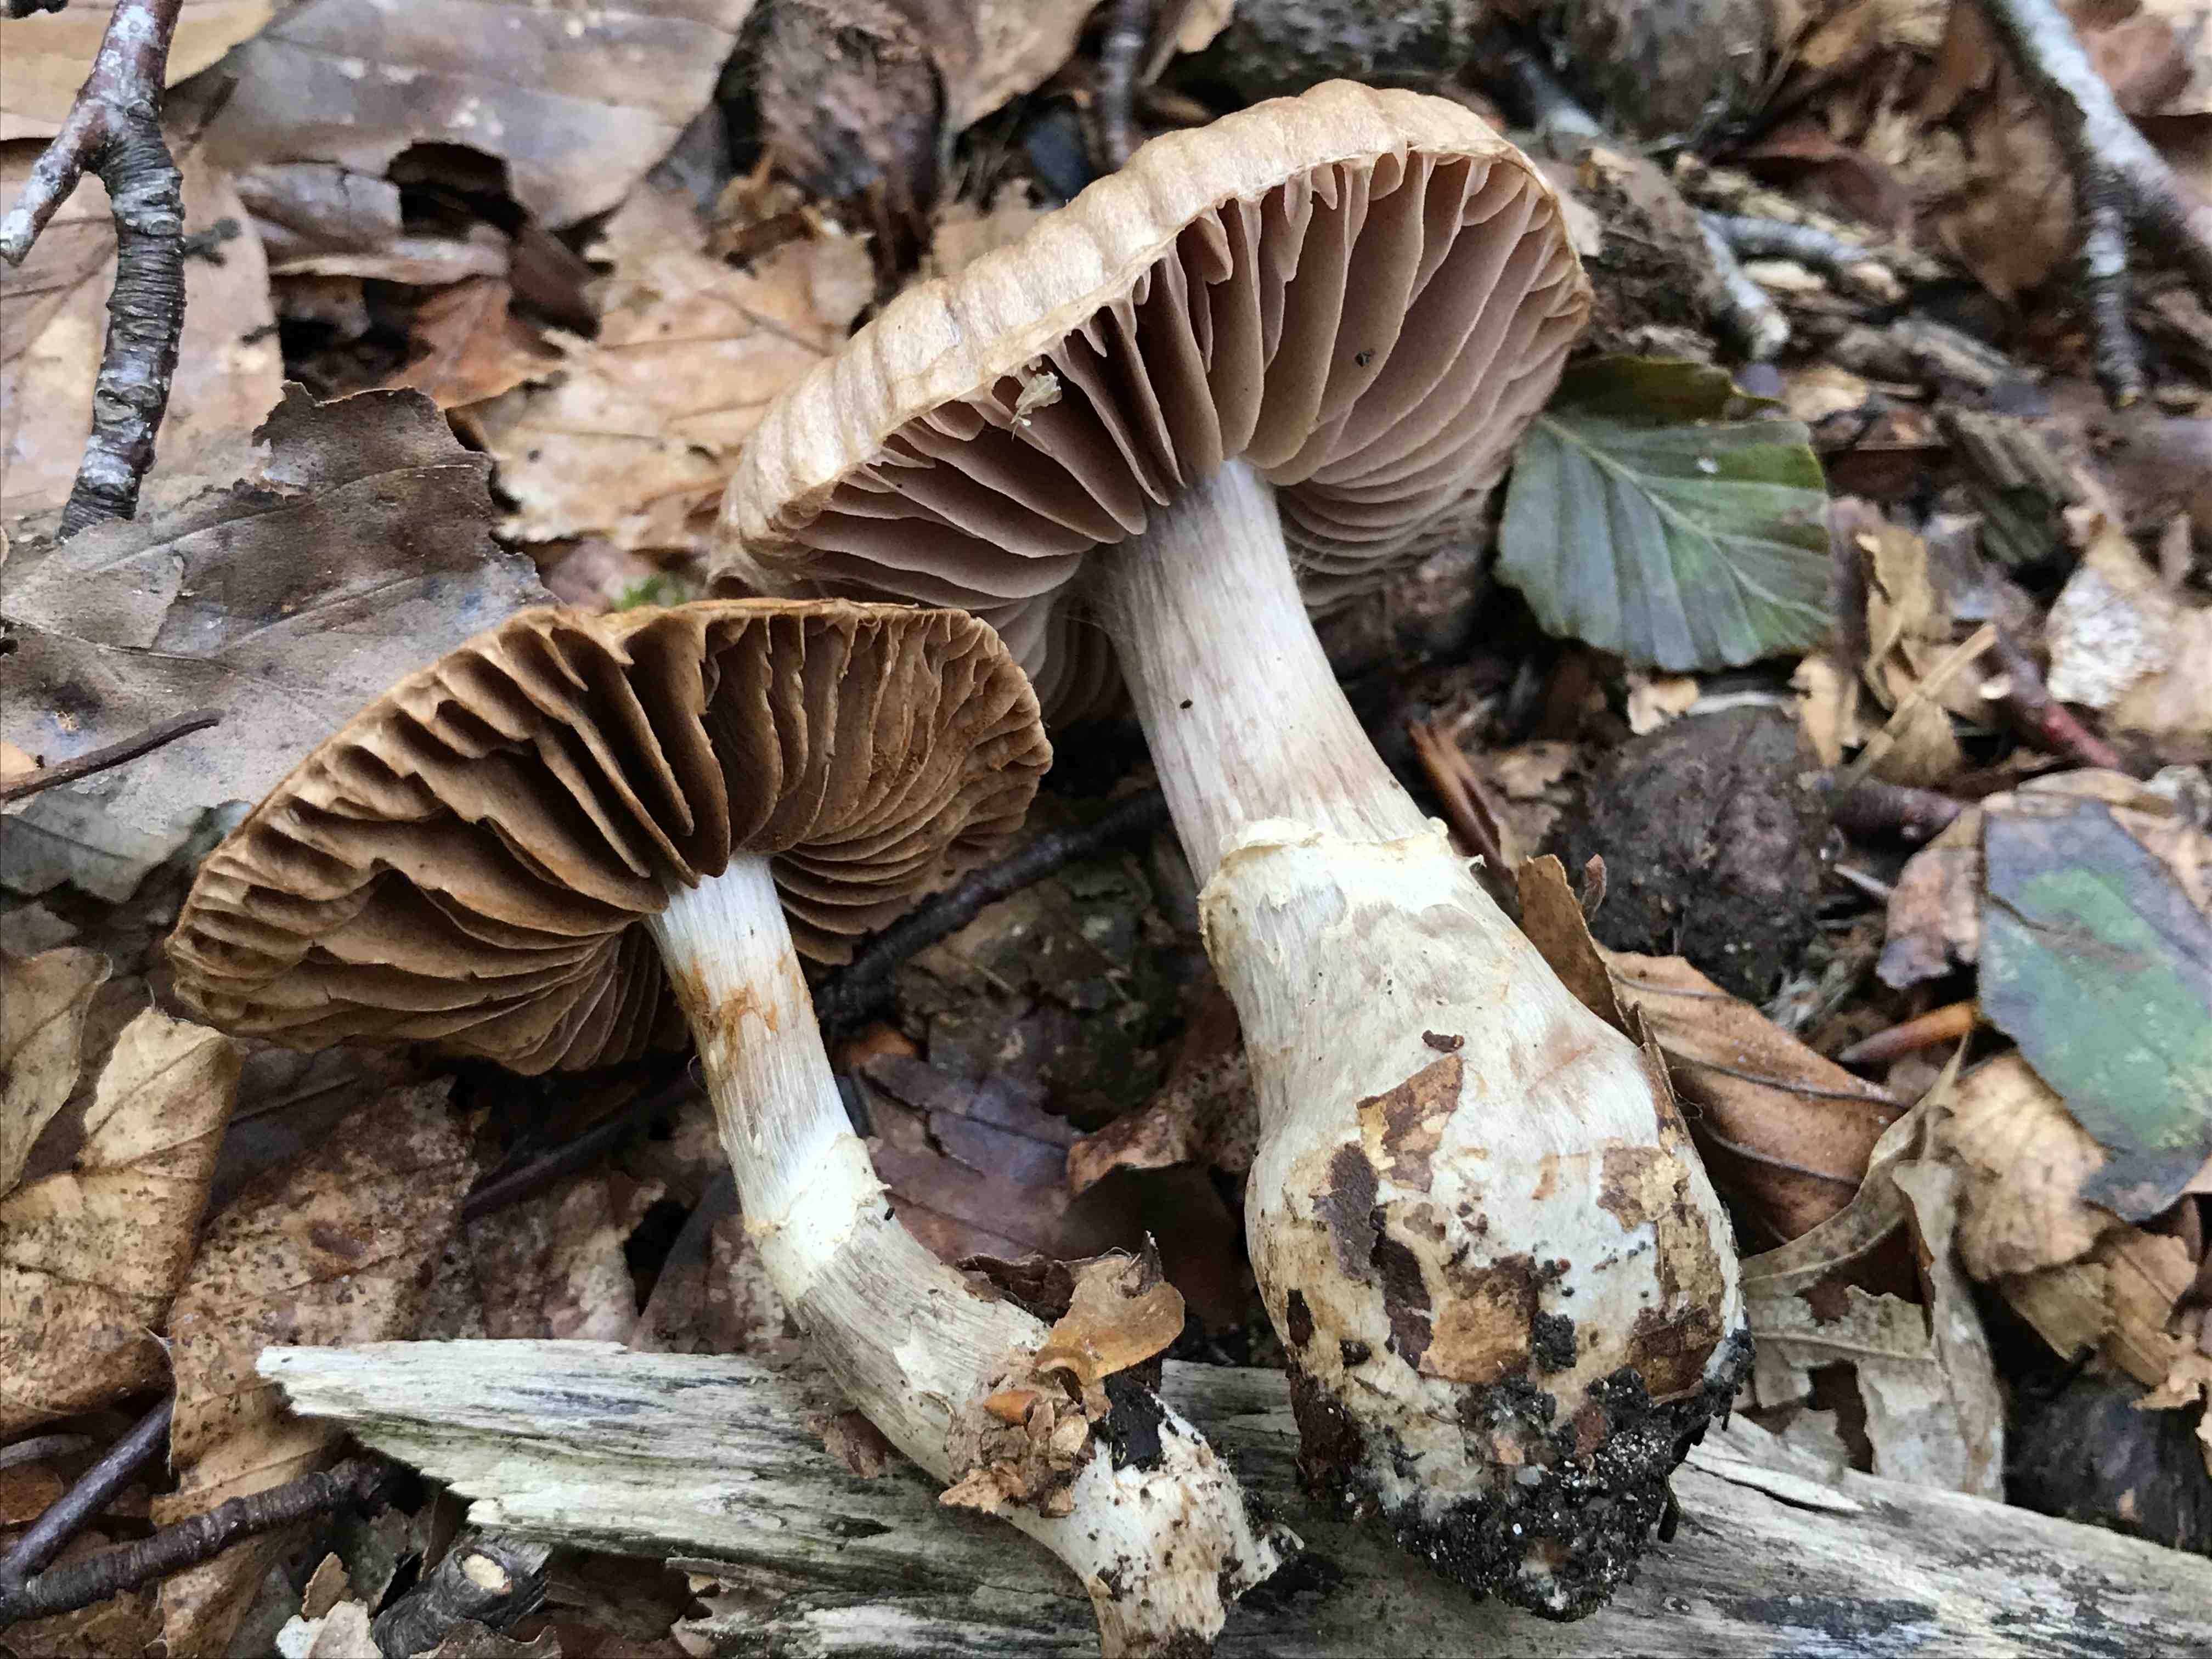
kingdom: Fungi
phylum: Basidiomycota
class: Agaricomycetes
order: Agaricales
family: Cortinariaceae
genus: Cortinarius
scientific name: Cortinarius torvus
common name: champignonagtig slørhat
